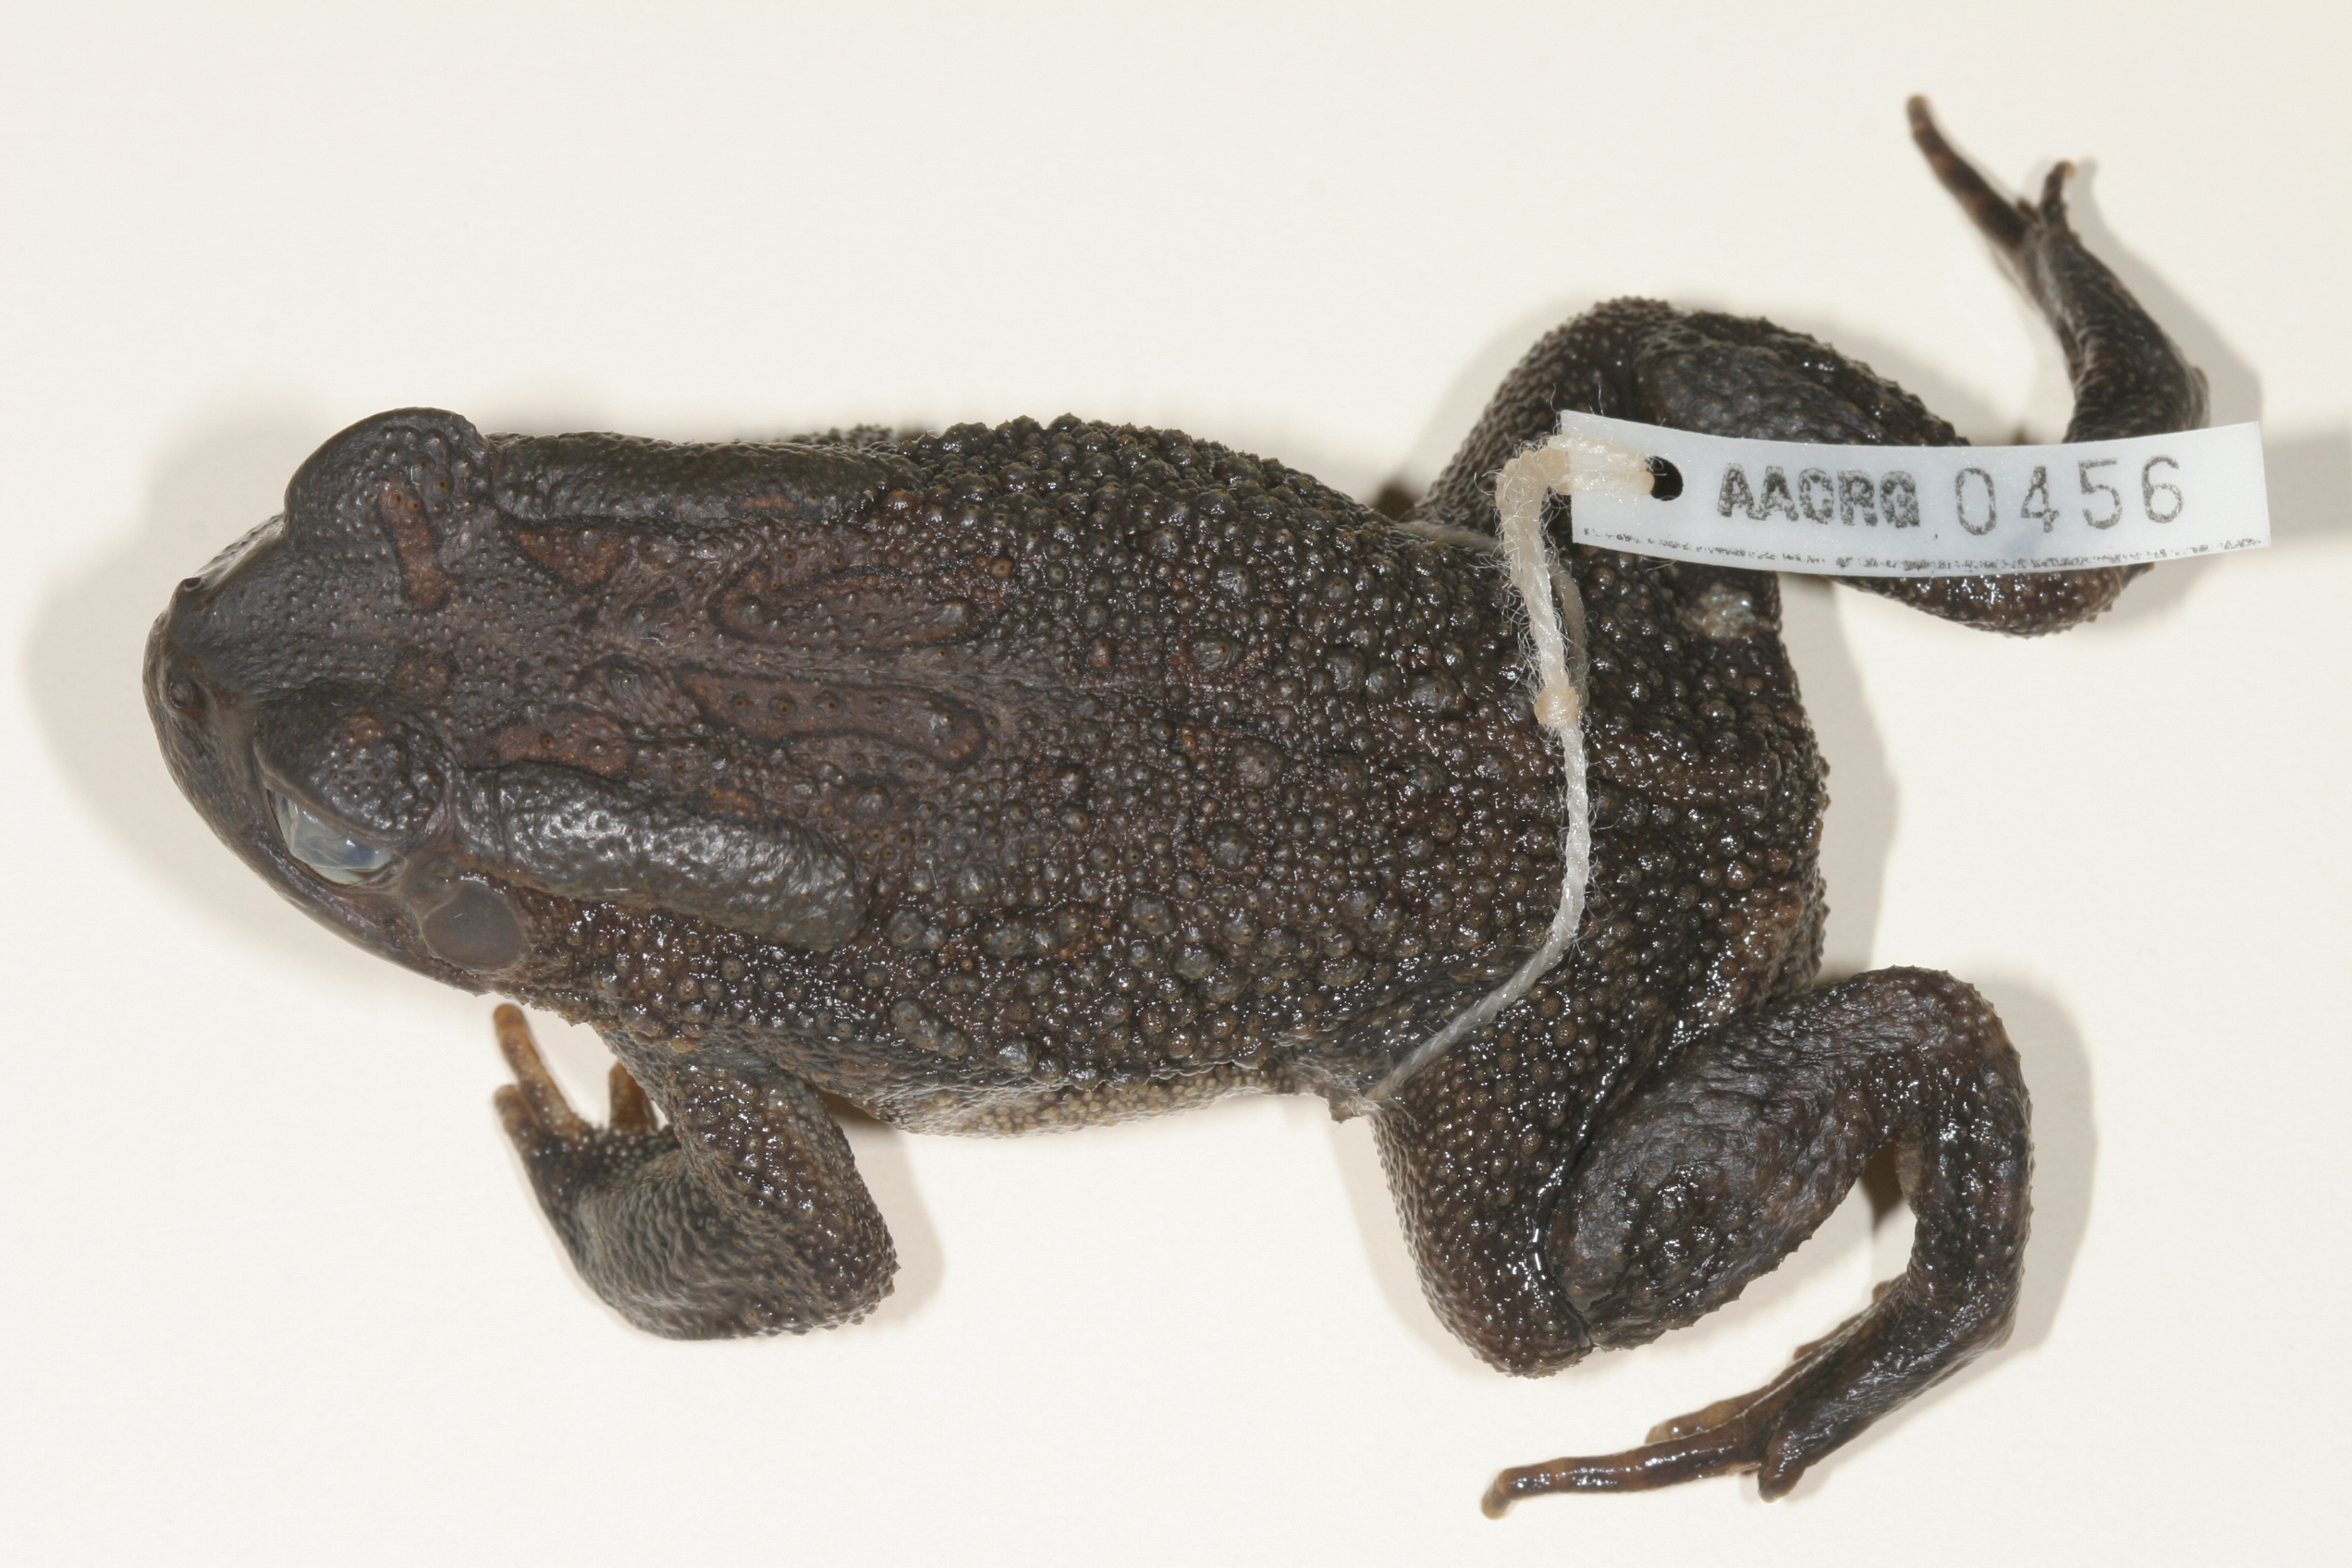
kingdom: Animalia
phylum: Chordata
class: Amphibia
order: Anura
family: Bufonidae
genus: Sclerophrys
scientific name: Sclerophrys garmani
